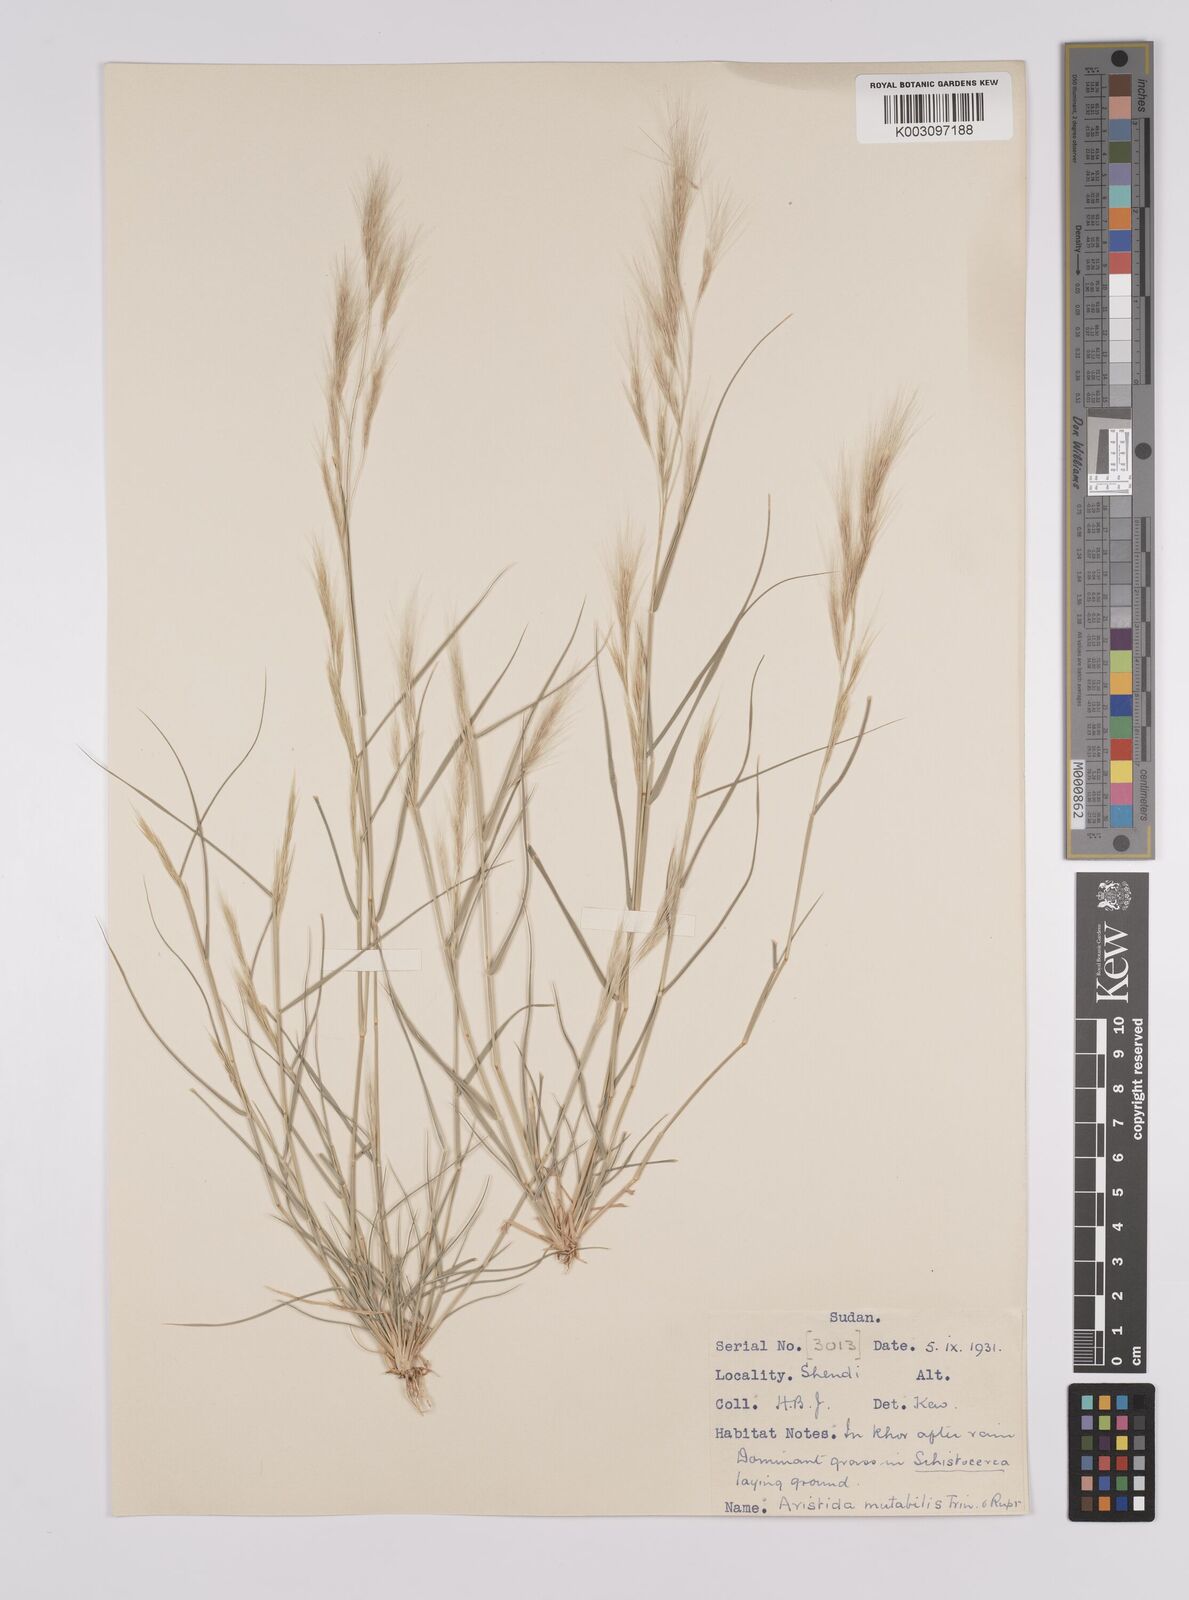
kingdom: Plantae
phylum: Tracheophyta
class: Liliopsida
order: Poales
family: Poaceae
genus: Aristida
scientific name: Aristida mutabilis
